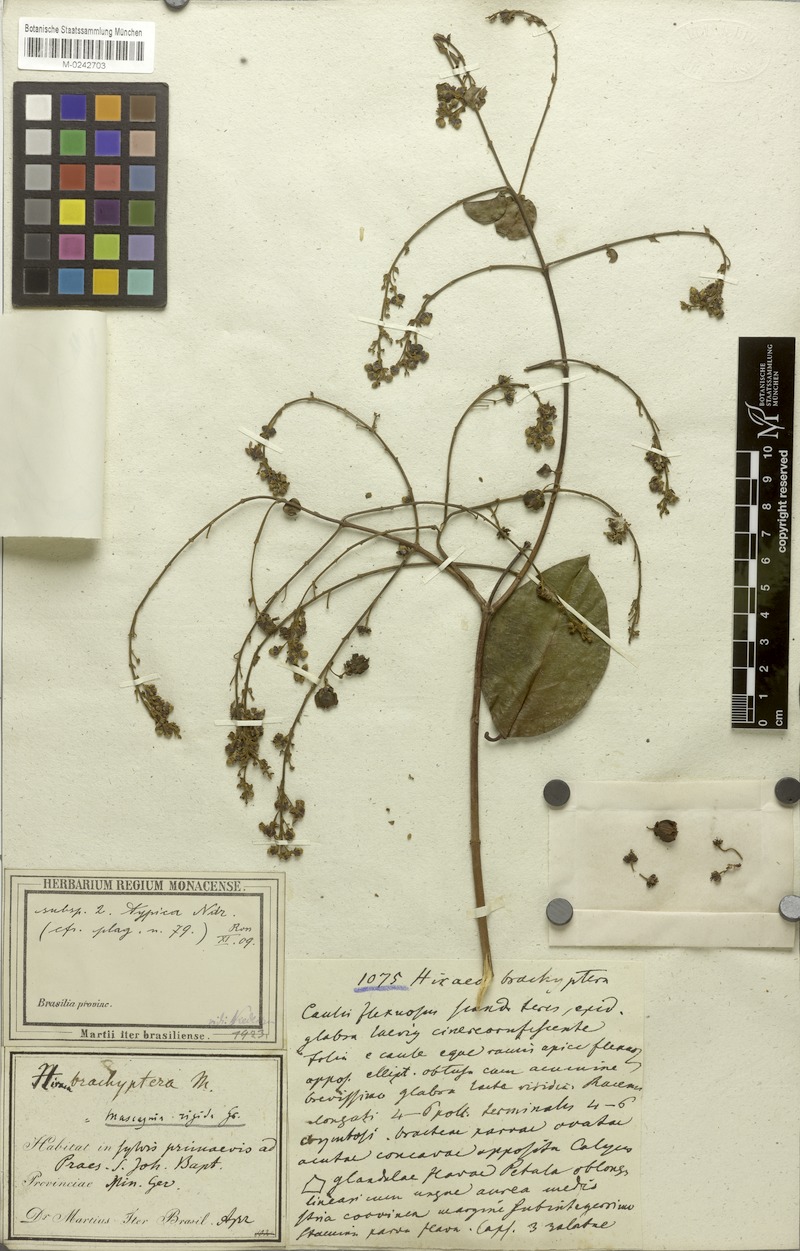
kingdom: Plantae
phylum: Tracheophyta
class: Magnoliopsida
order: Malpighiales
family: Malpighiaceae
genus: Amorimia
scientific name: Amorimia rigida
